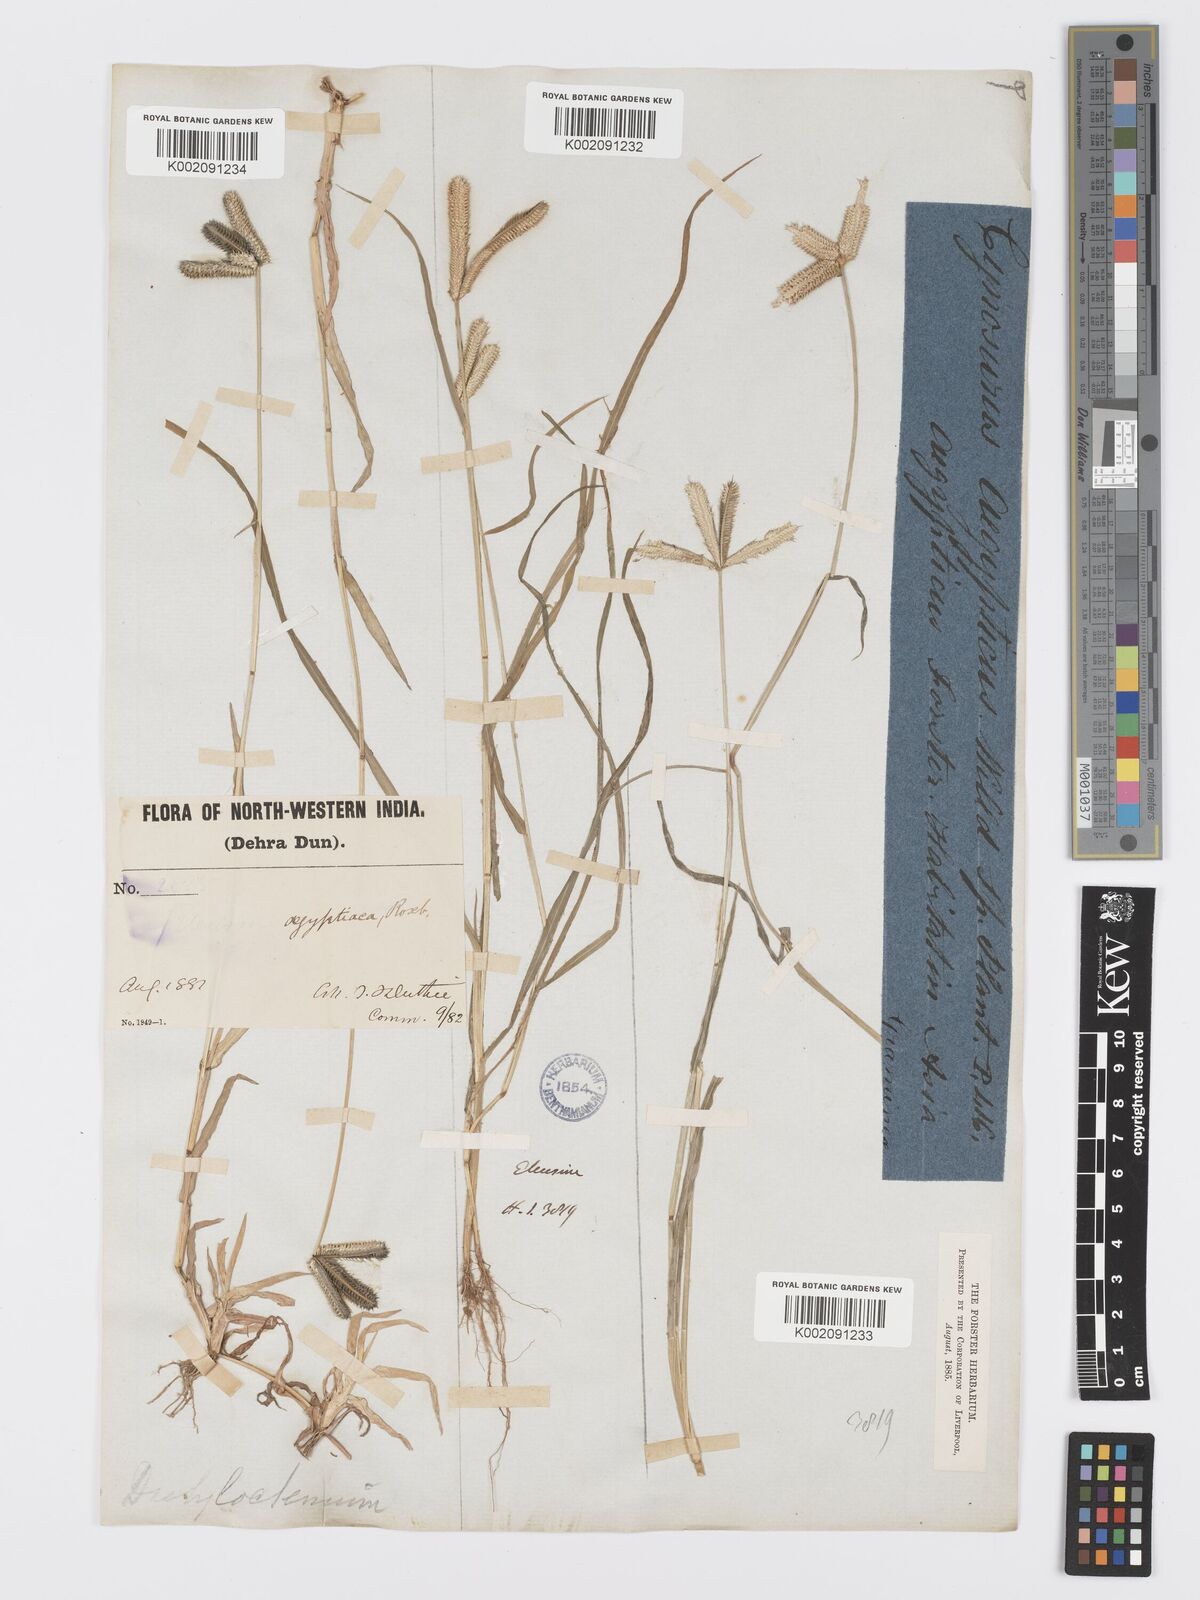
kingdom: Plantae
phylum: Tracheophyta
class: Liliopsida
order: Poales
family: Poaceae
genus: Dactyloctenium
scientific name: Dactyloctenium aegyptium
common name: Egyptian grass
